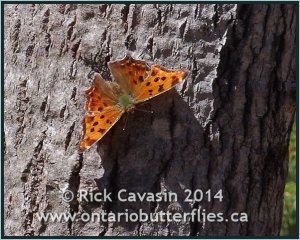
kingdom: Animalia
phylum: Arthropoda
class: Insecta
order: Lepidoptera
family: Nymphalidae
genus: Polygonia
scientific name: Polygonia comma
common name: Eastern Comma
